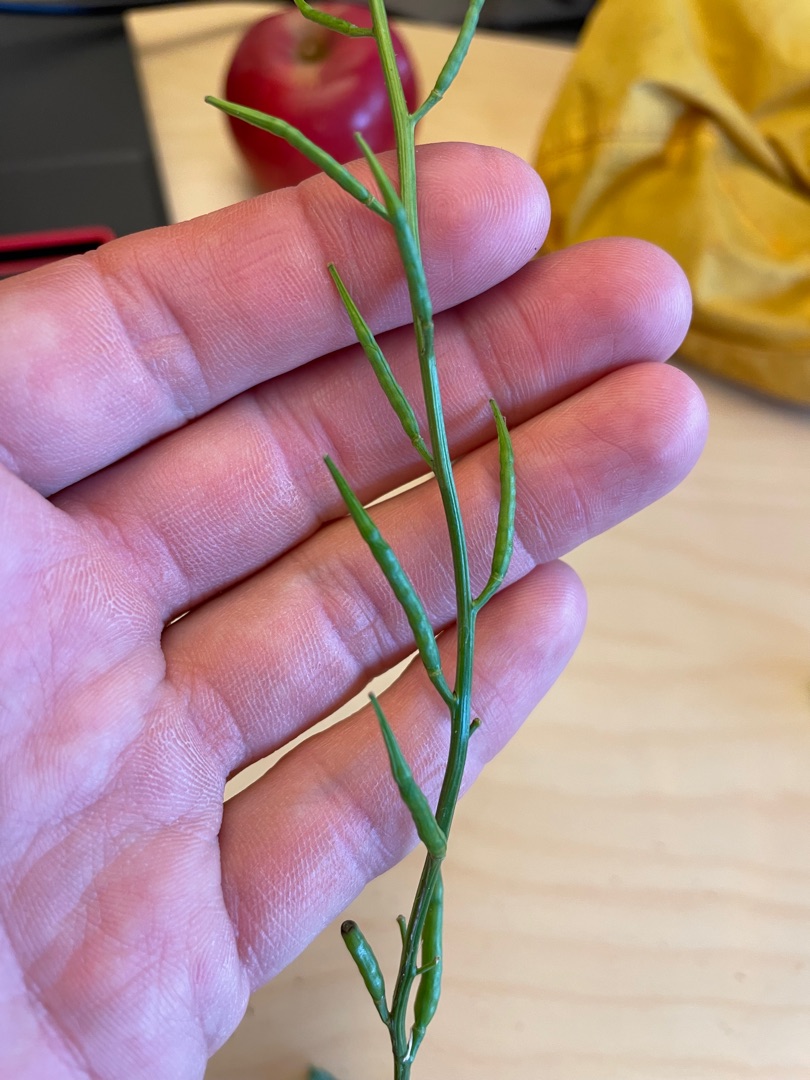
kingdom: Plantae
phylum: Tracheophyta
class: Magnoliopsida
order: Brassicales
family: Brassicaceae
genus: Sinapis
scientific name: Sinapis arvensis
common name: Ager-sennep
